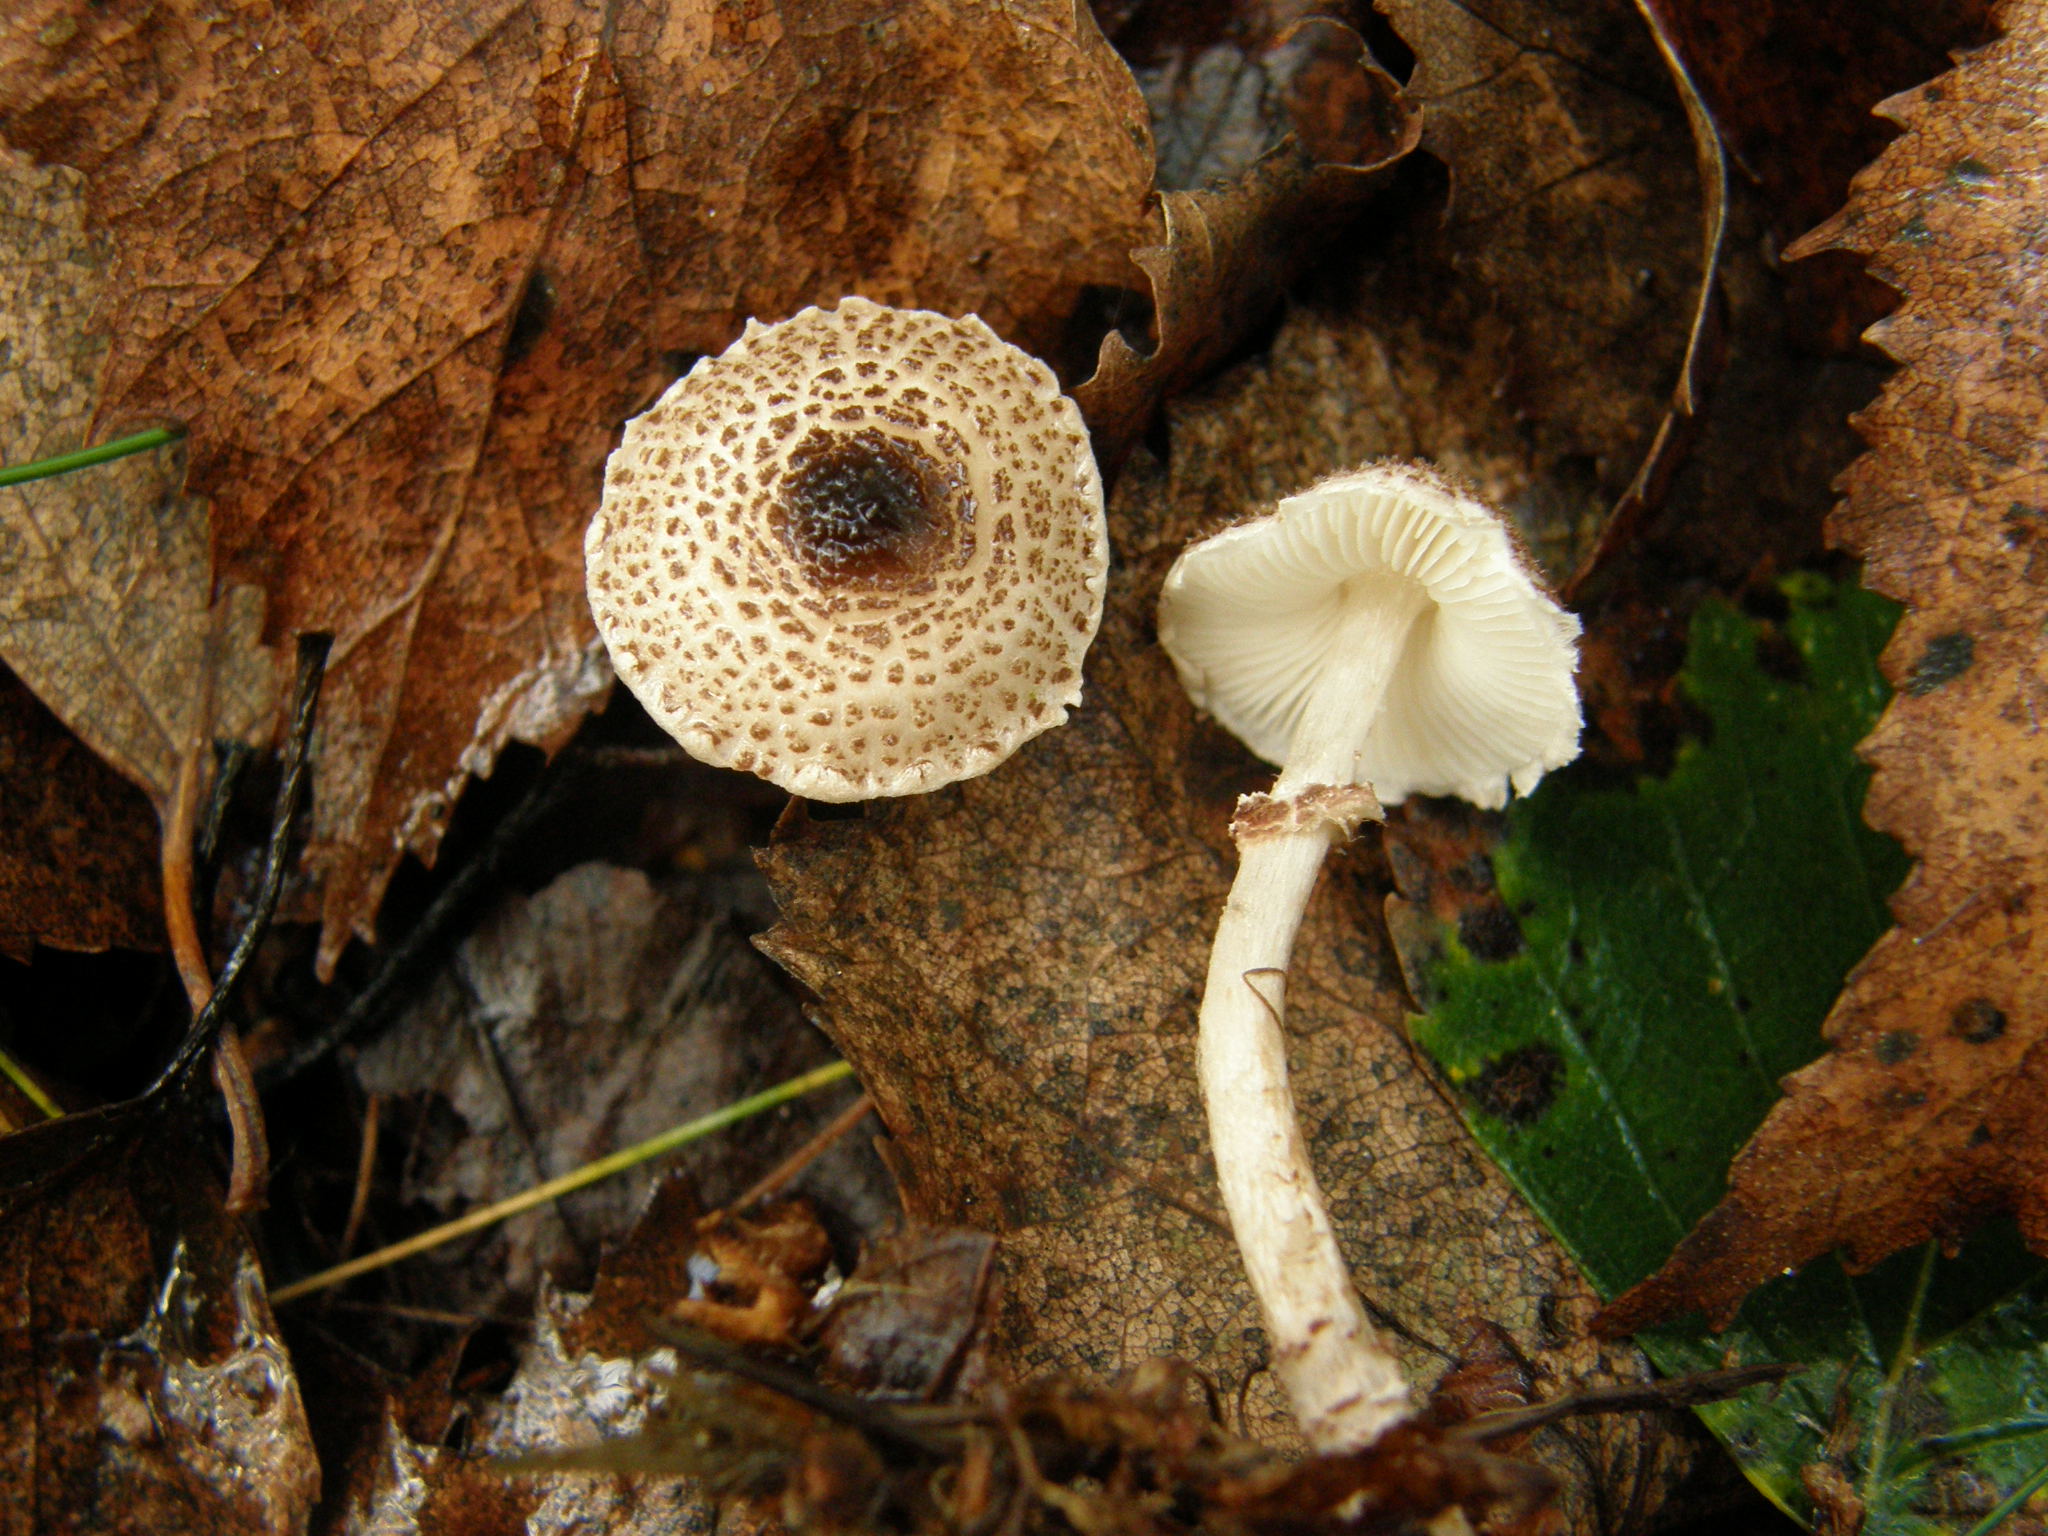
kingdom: Fungi
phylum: Basidiomycota
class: Agaricomycetes
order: Agaricales
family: Agaricaceae
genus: Lepiota
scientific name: Lepiota felina
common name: Cat dapperling
